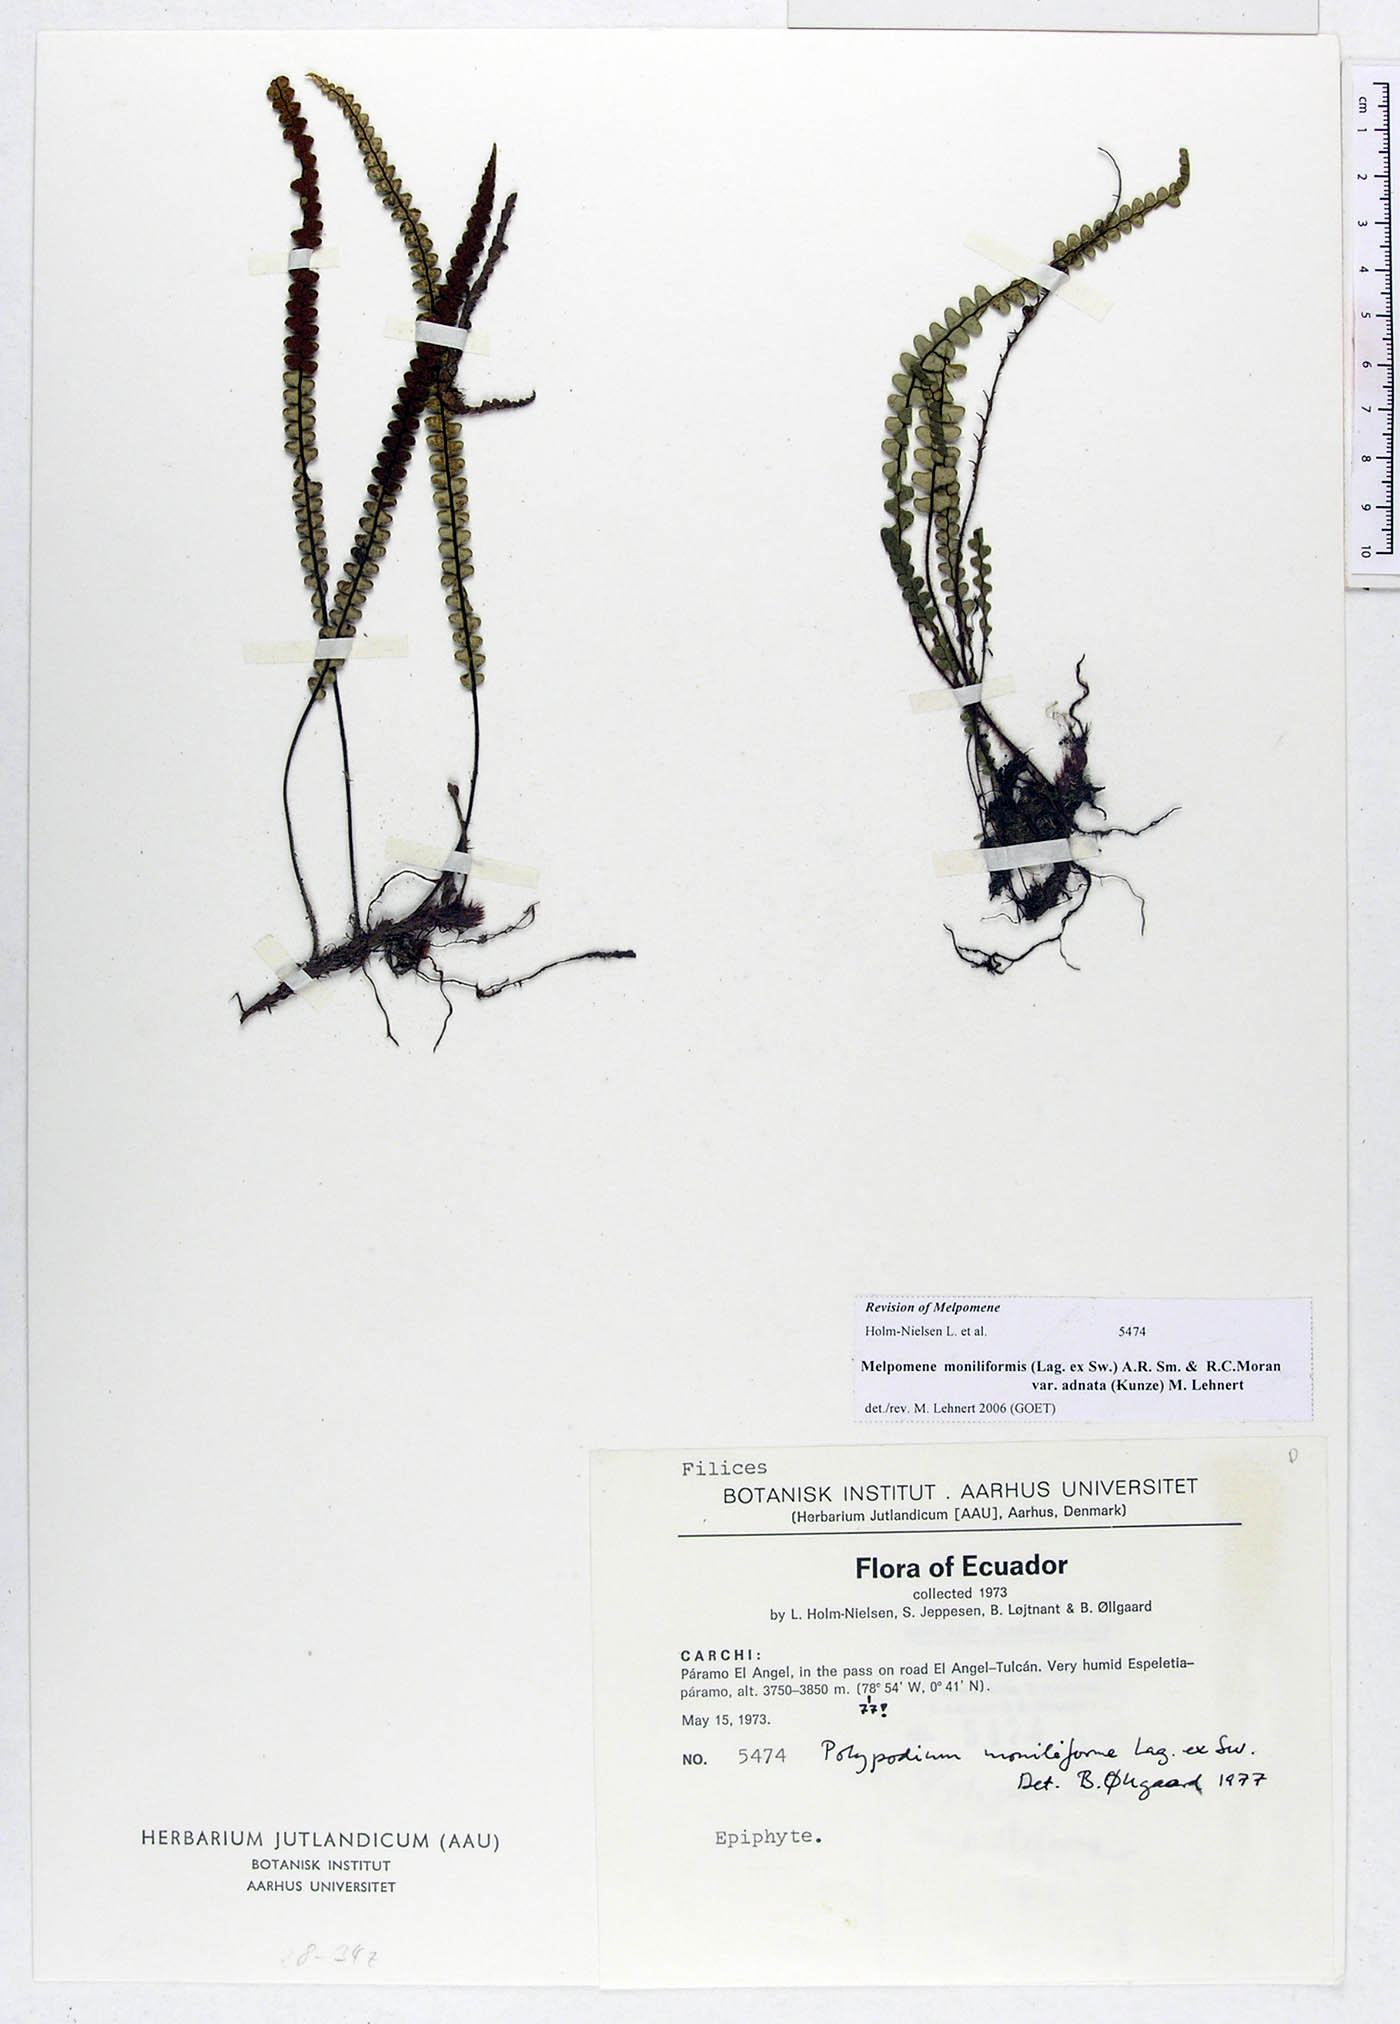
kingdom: Plantae
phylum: Tracheophyta
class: Polypodiopsida
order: Polypodiales
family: Polypodiaceae
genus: Melpomene
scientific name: Melpomene moniliformis
